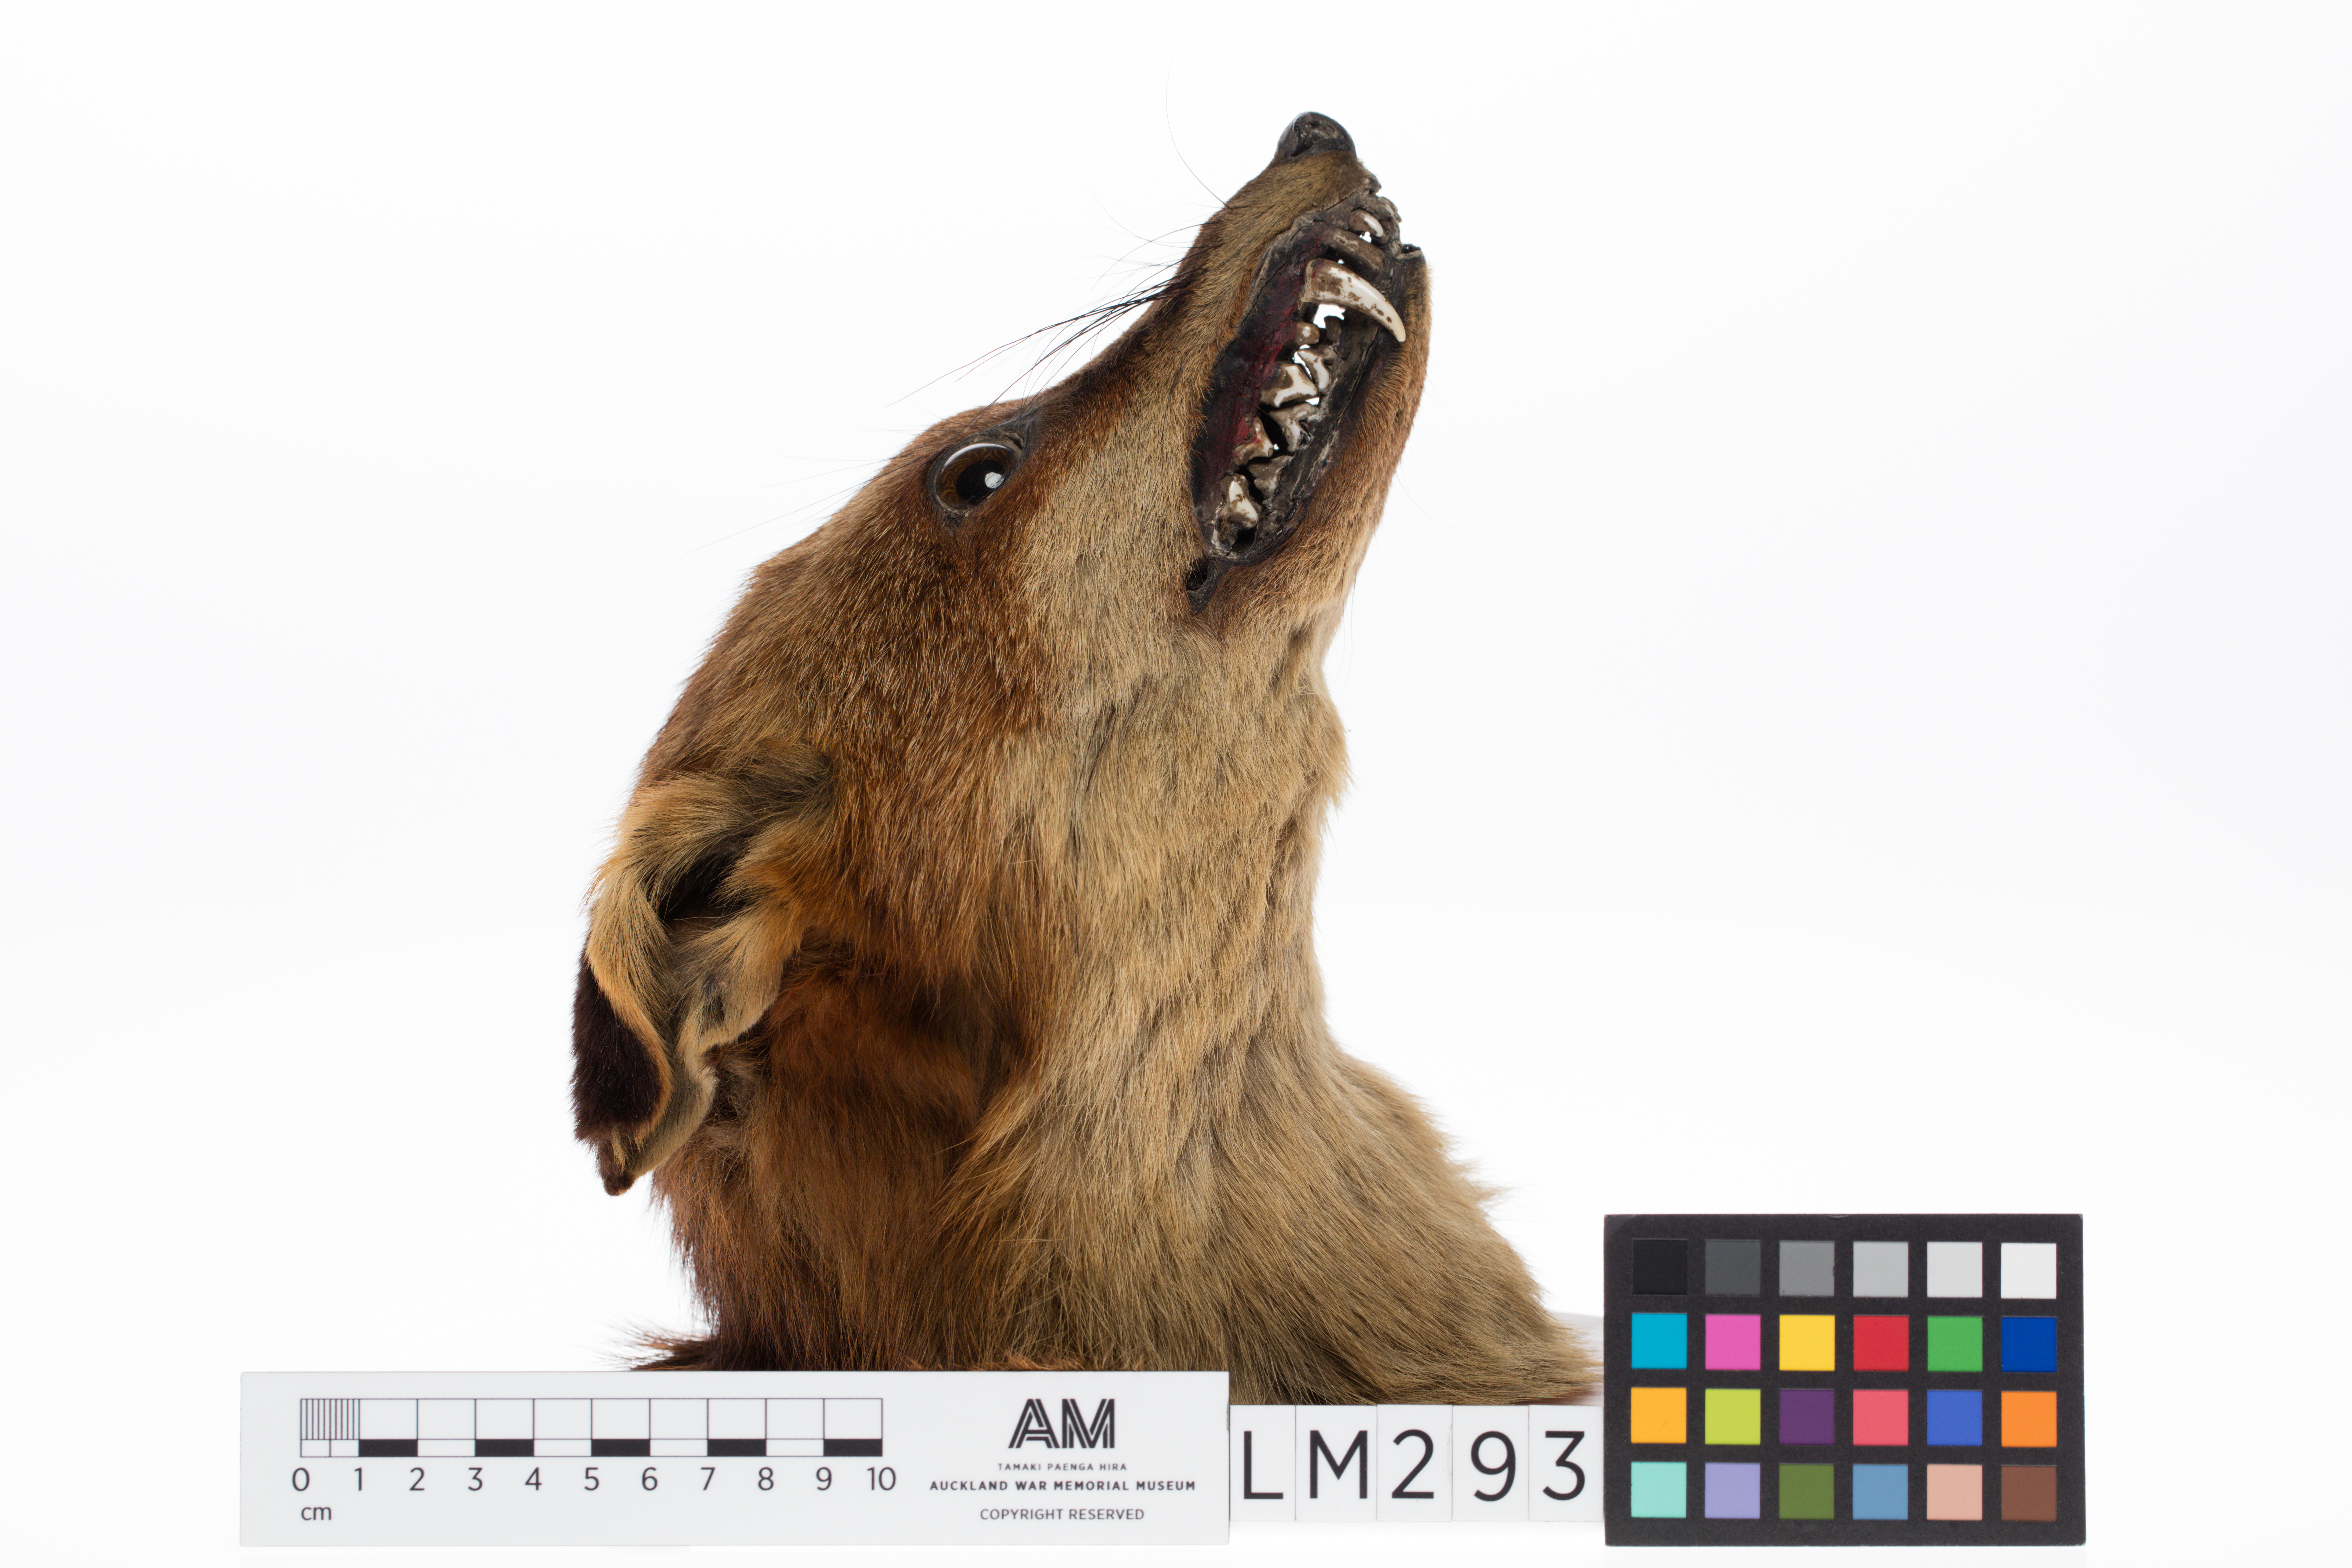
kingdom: Animalia
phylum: Chordata
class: Mammalia
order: Carnivora
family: Canidae
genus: Vulpes
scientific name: Vulpes vulpes
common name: Red fox
